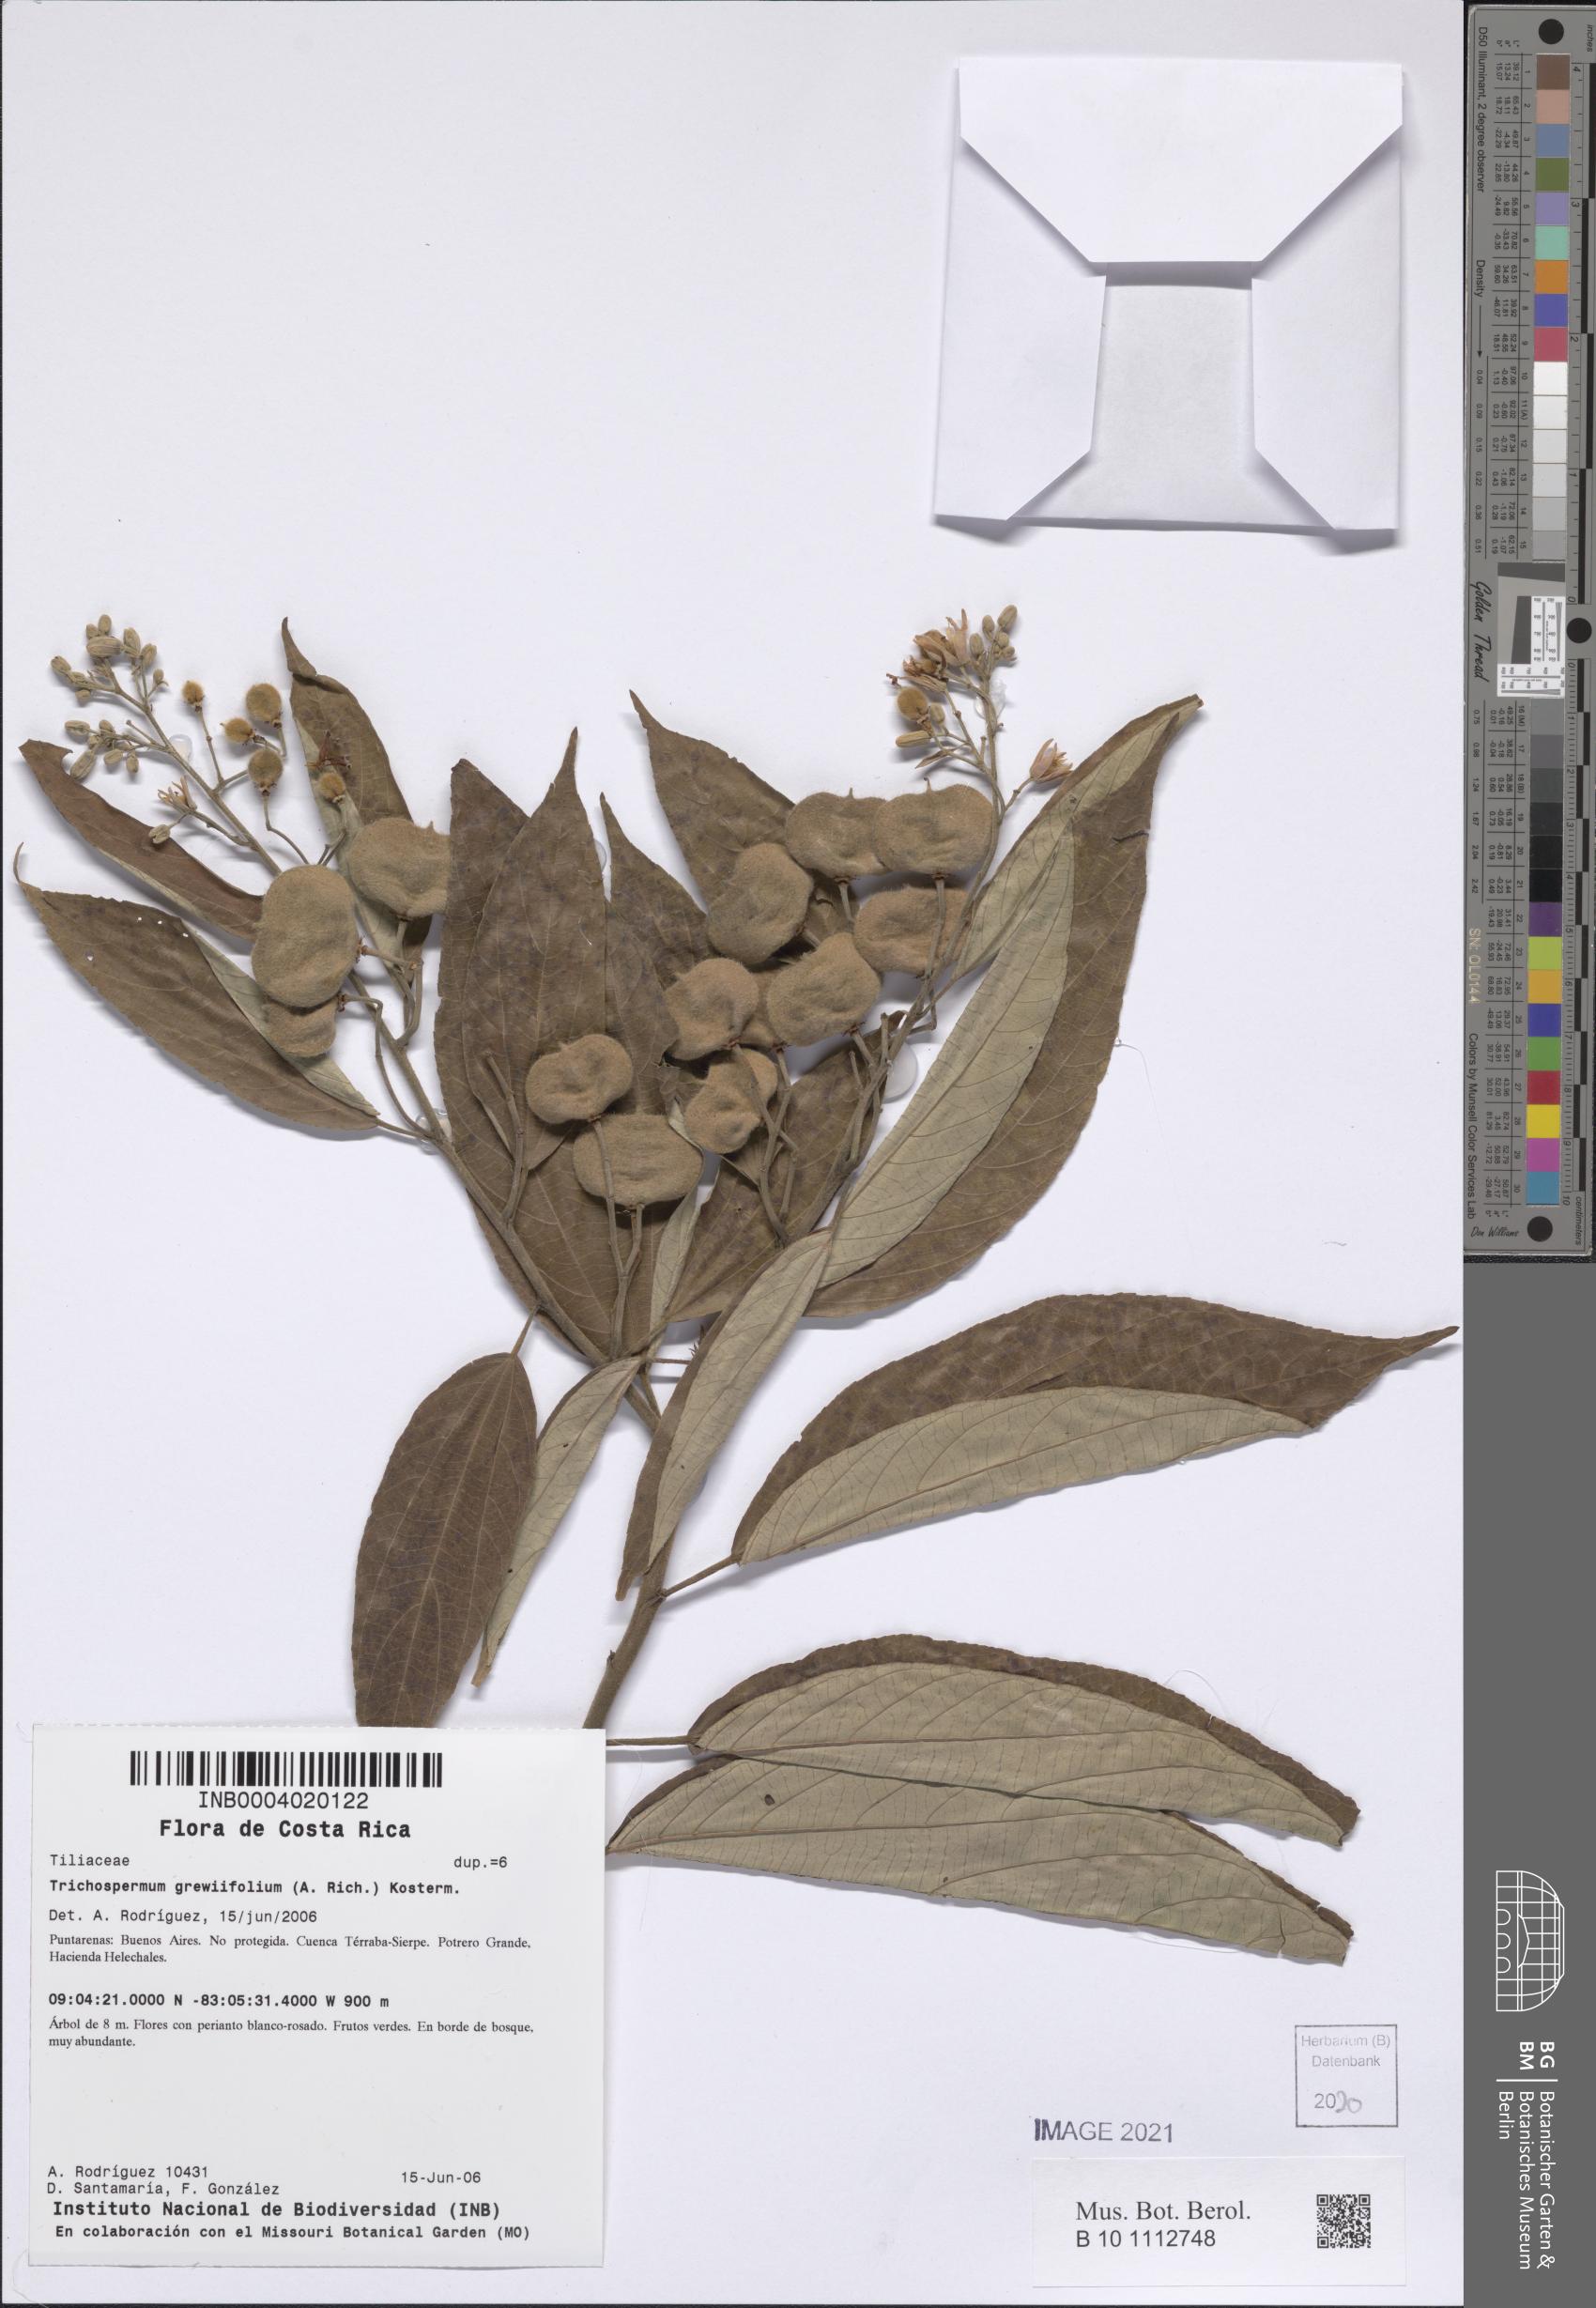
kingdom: Plantae
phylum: Tracheophyta
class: Magnoliopsida
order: Malvales
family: Malvaceae
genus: Trichospermum
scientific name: Trichospermum mexicanum
